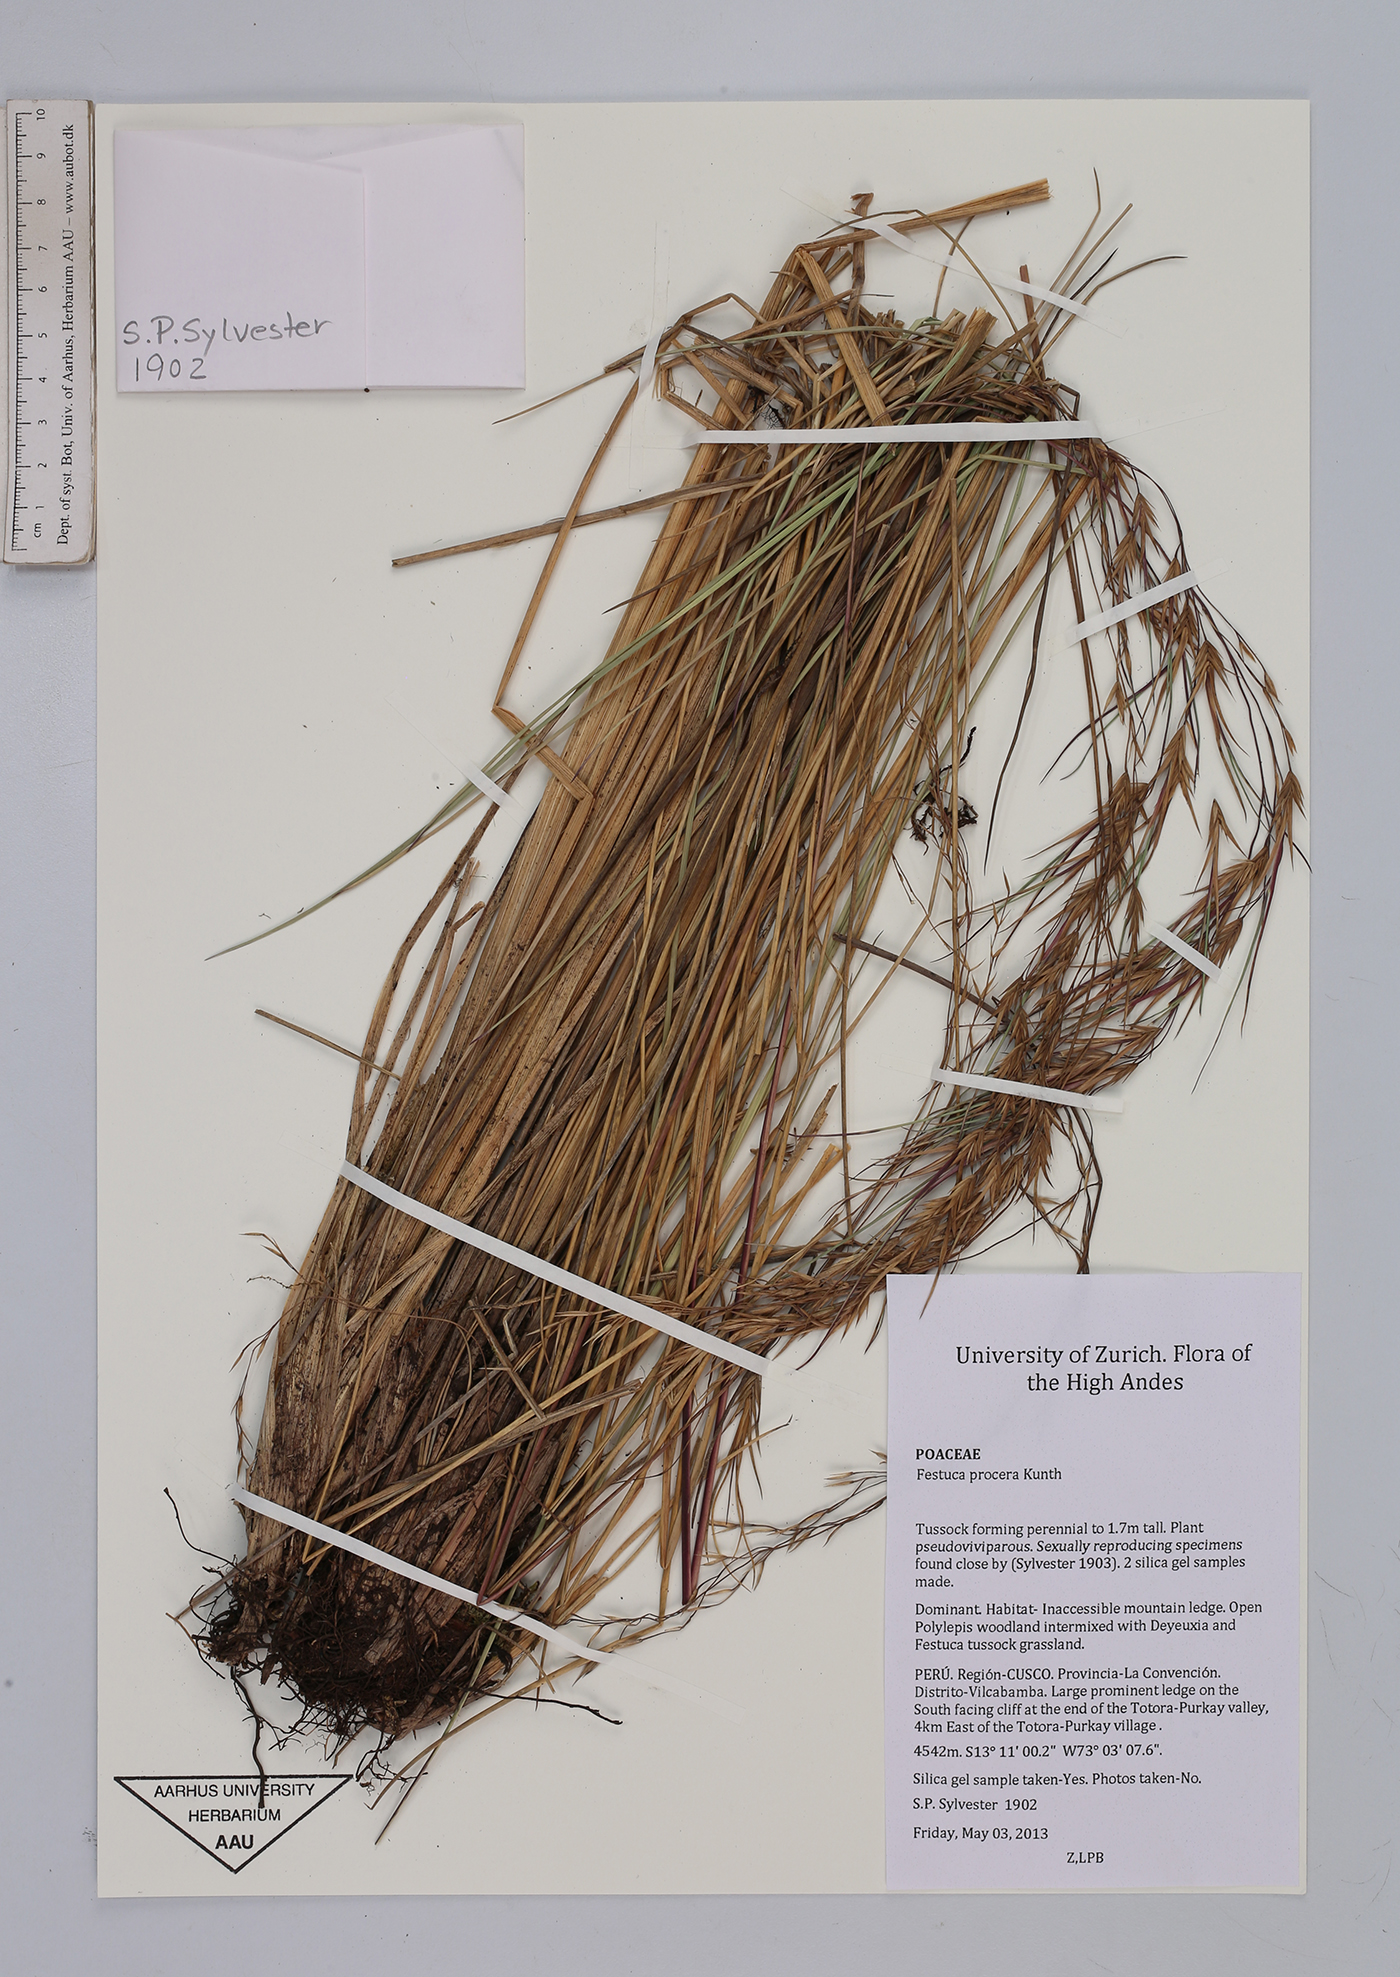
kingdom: Plantae
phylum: Tracheophyta
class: Liliopsida
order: Poales
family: Poaceae
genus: Festuca
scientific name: Festuca procera
